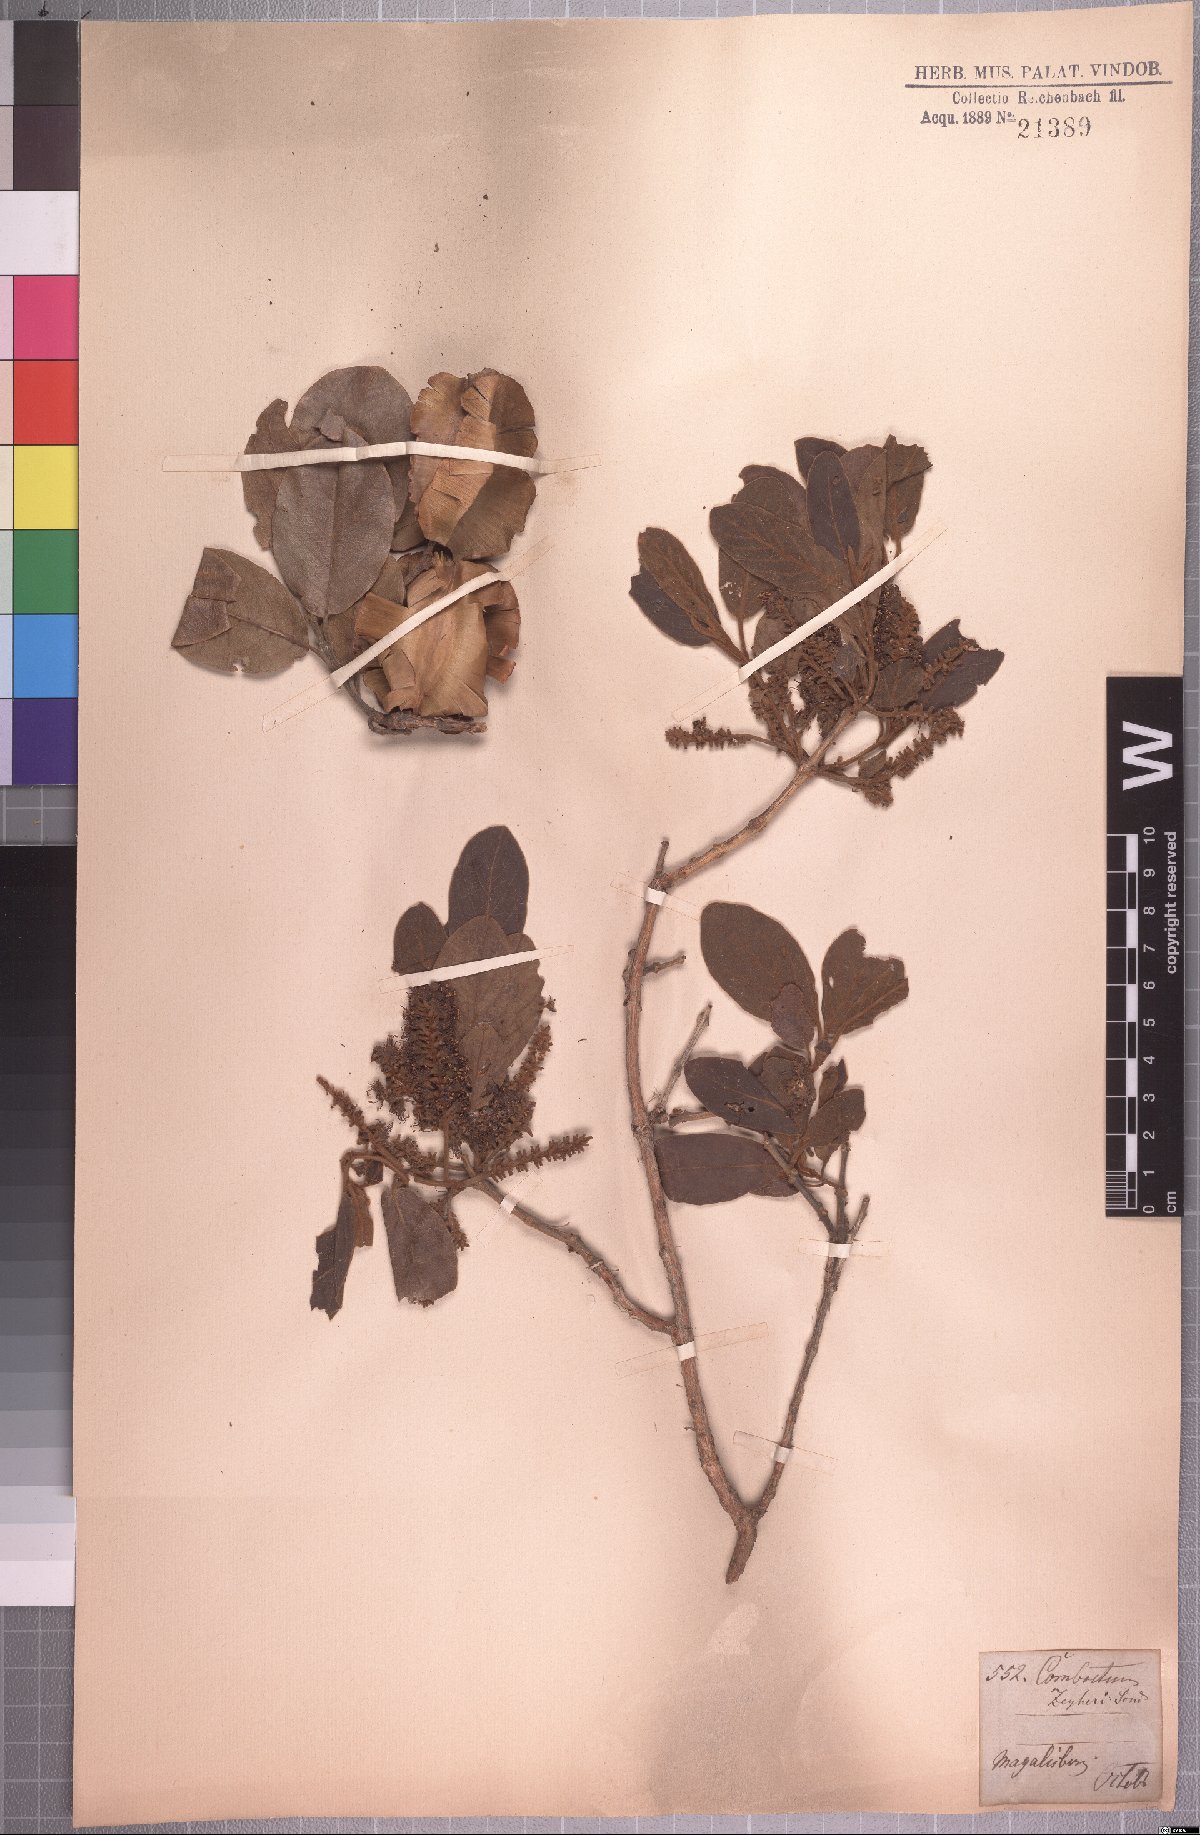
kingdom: Plantae
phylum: Tracheophyta
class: Magnoliopsida
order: Myrtales
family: Combretaceae
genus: Combretum
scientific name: Combretum zeyheri
